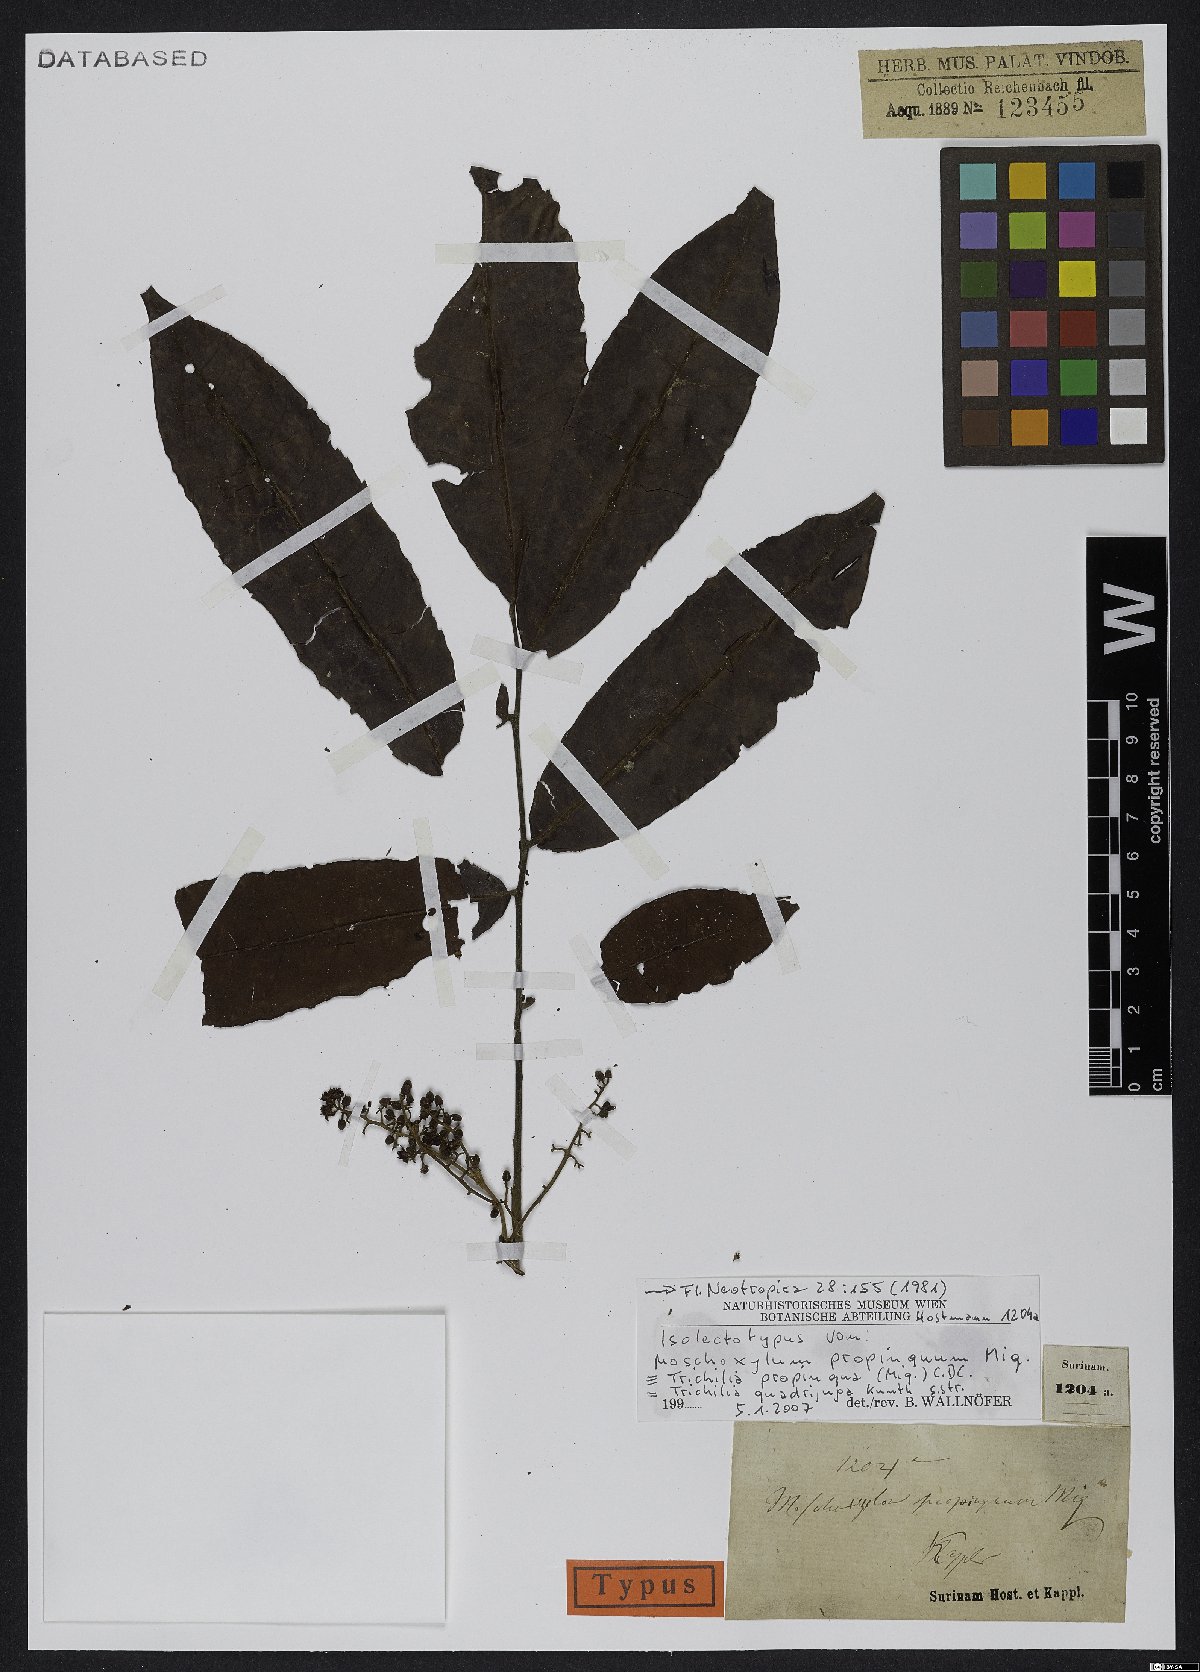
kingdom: Plantae
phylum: Tracheophyta
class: Magnoliopsida
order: Sapindales
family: Meliaceae
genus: Trichilia
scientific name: Trichilia quadrijuga
